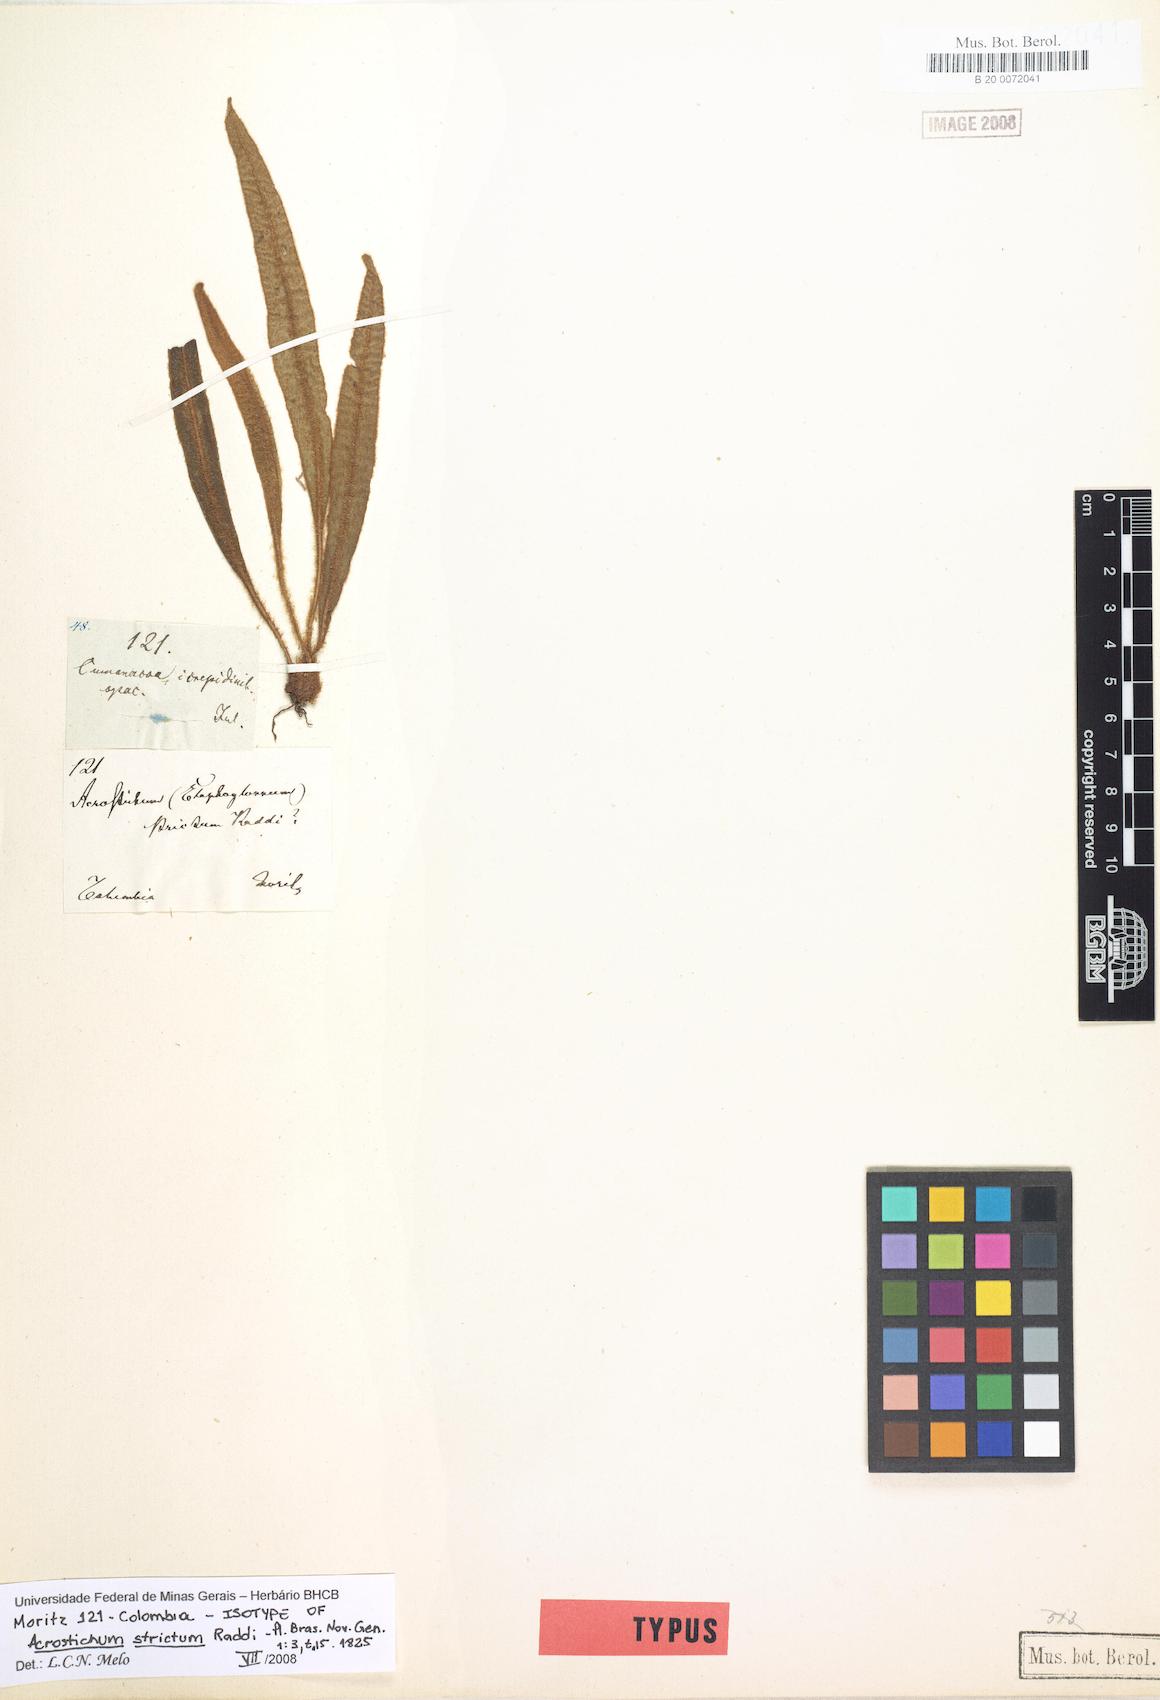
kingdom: Plantae
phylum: Tracheophyta
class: Polypodiopsida
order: Polypodiales
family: Dryopteridaceae
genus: Elaphoglossum
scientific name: Elaphoglossum curvans
